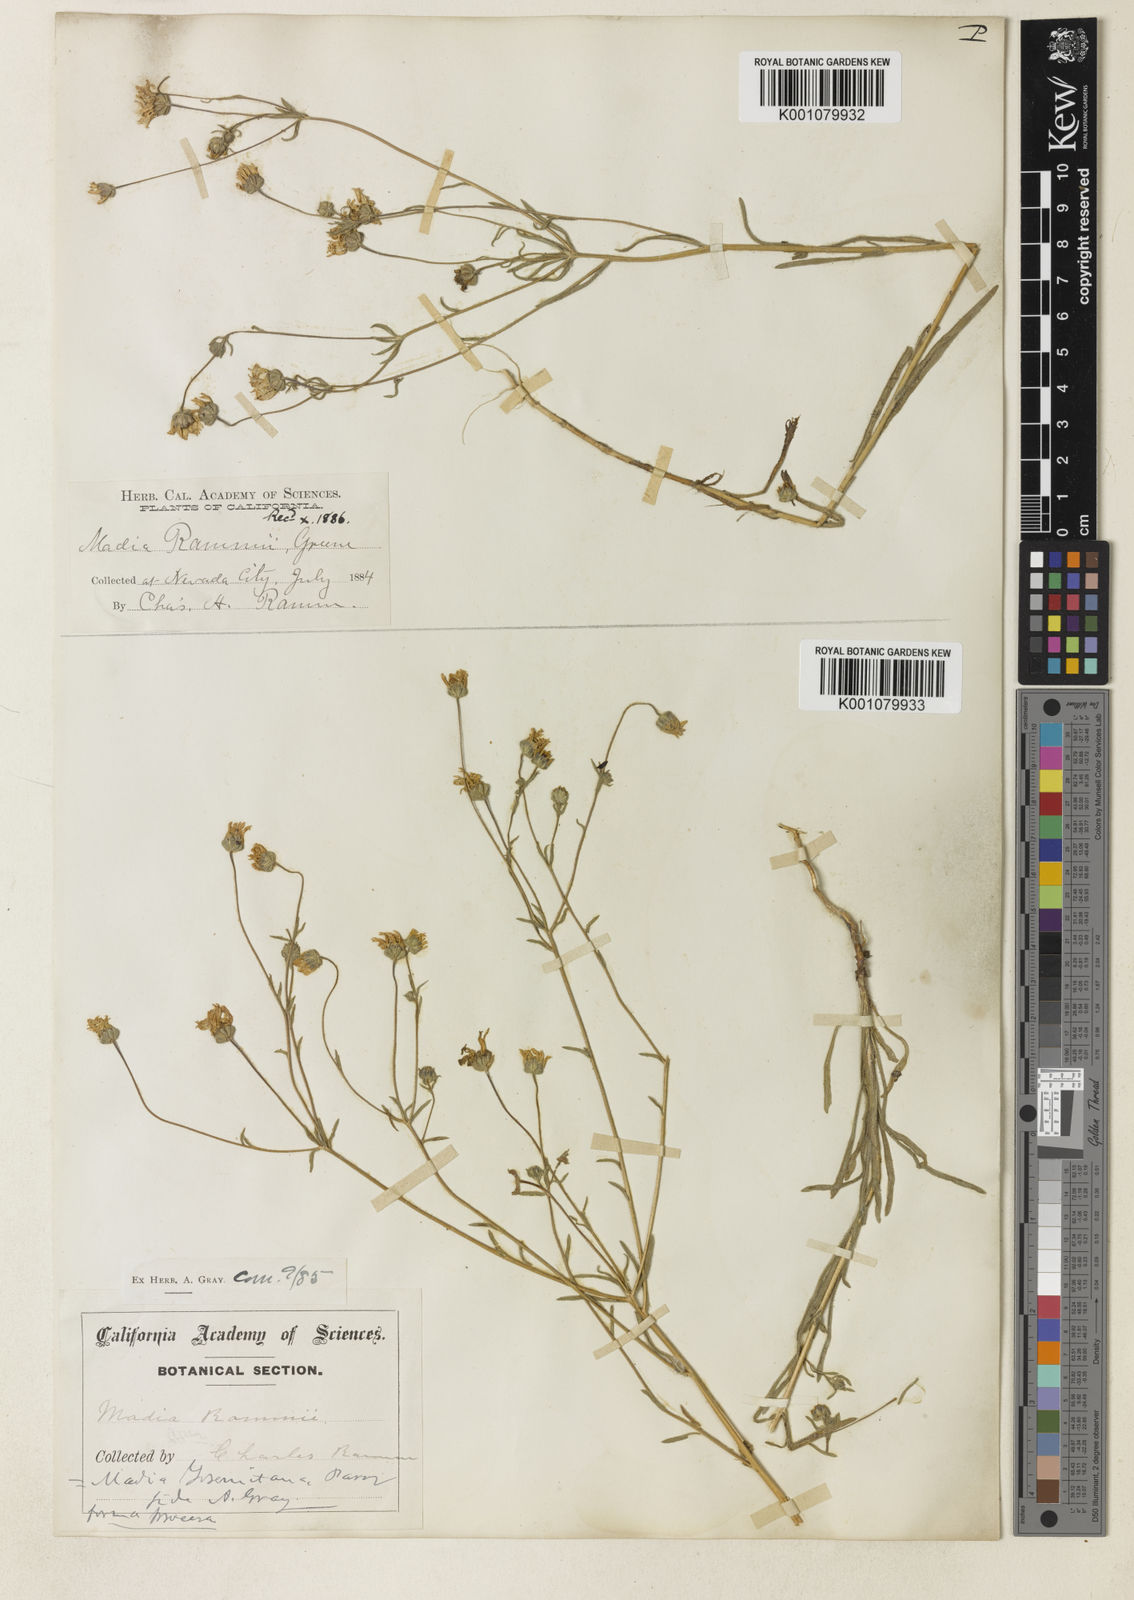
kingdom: Plantae
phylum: Tracheophyta
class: Magnoliopsida
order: Asterales
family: Asteraceae
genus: Jensia
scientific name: Jensia rammii
